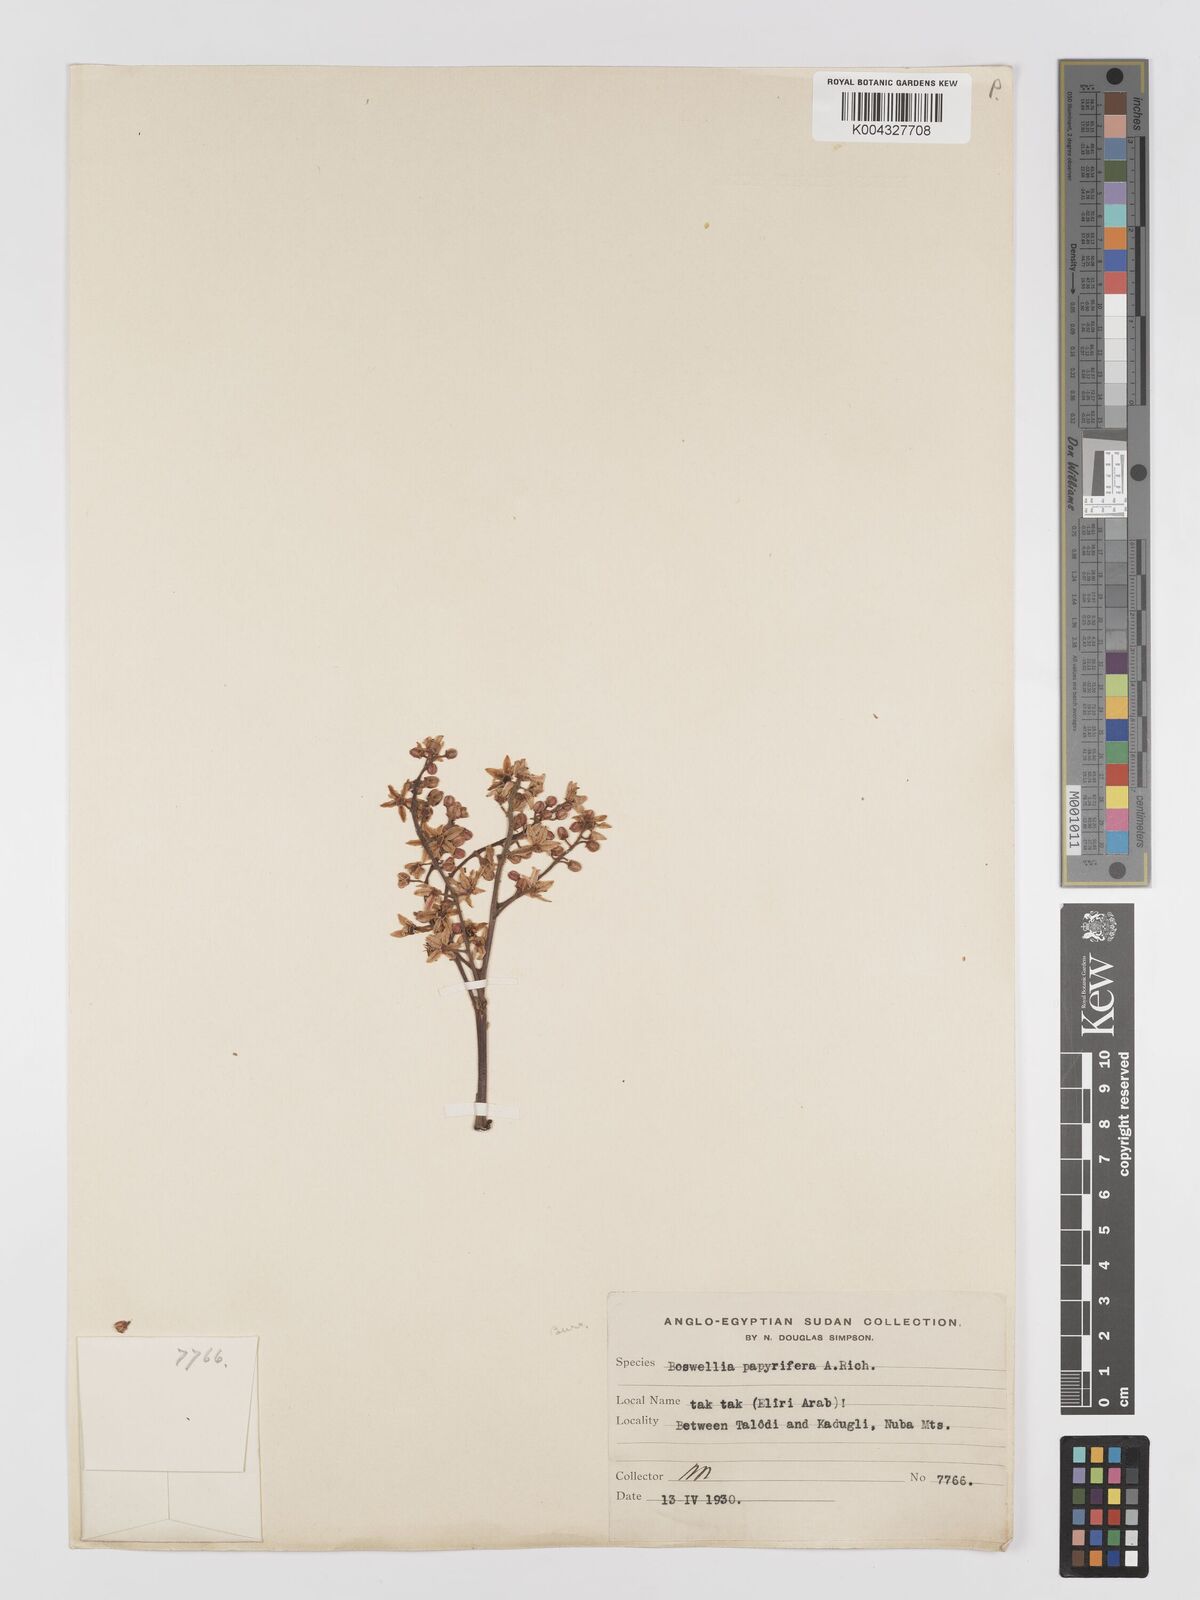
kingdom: Plantae
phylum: Tracheophyta
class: Magnoliopsida
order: Sapindales
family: Burseraceae
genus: Boswellia
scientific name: Boswellia papyrifera
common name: Sudanese frankincense
